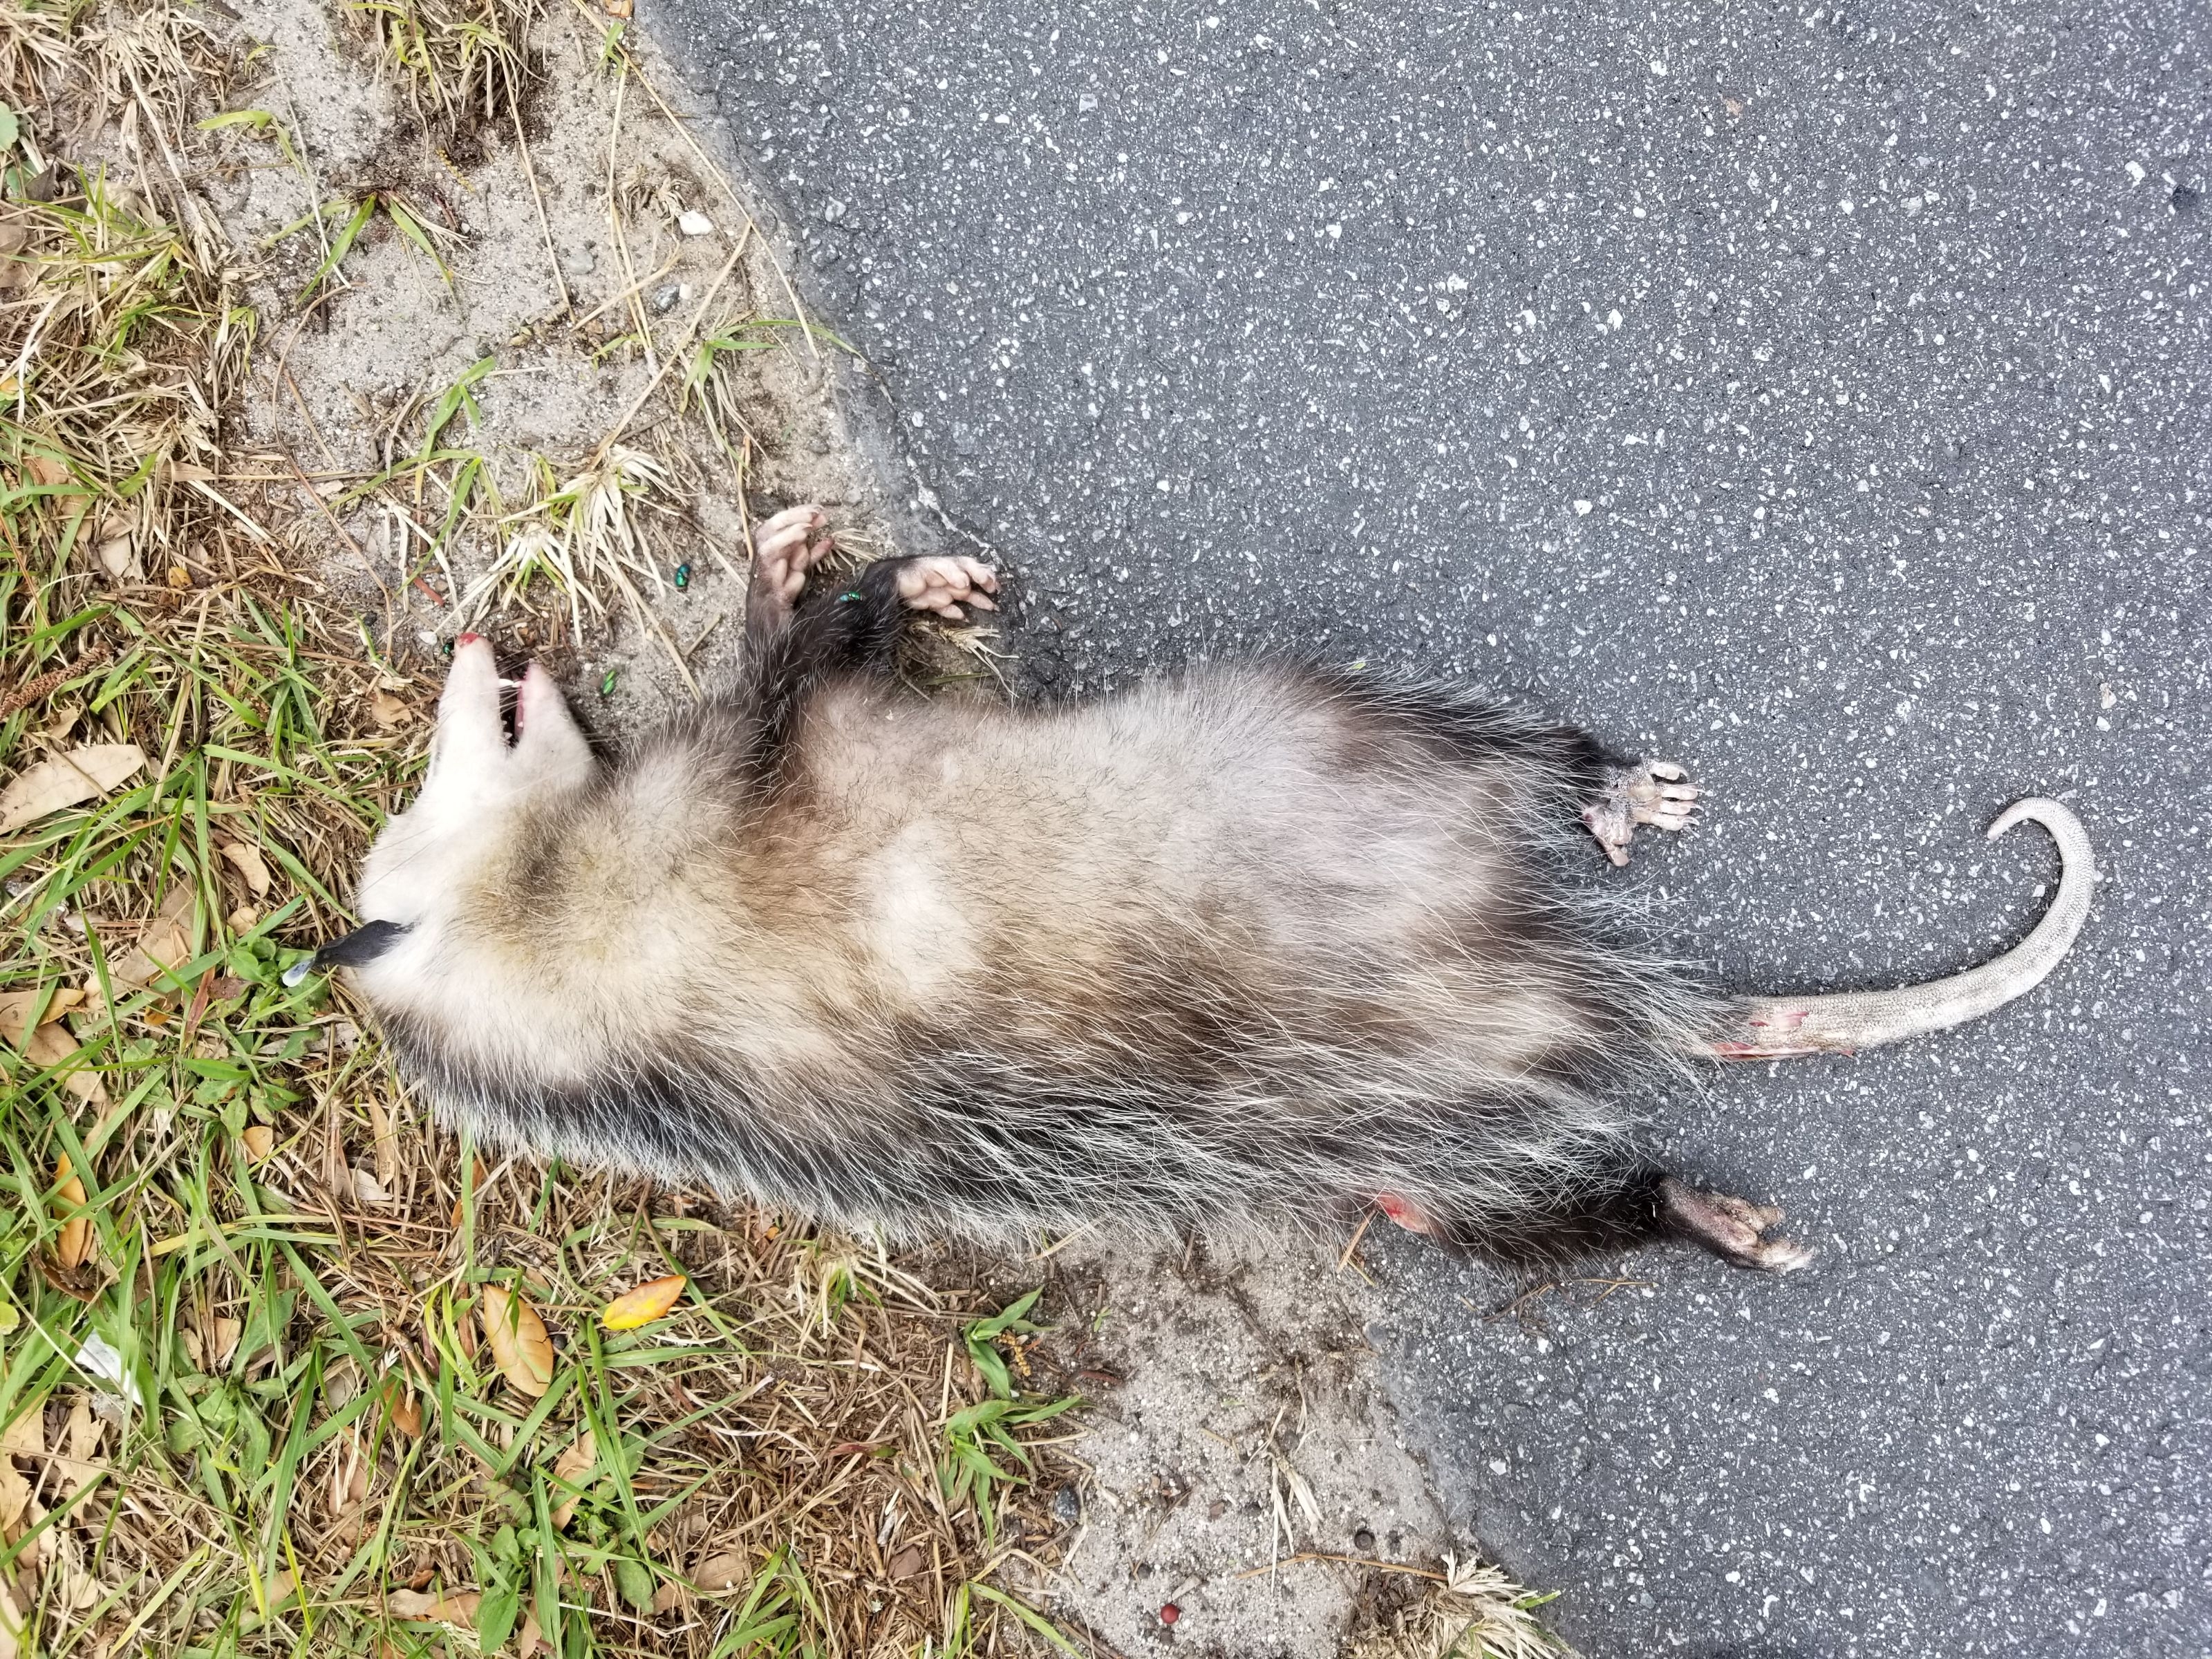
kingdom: Animalia
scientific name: Animalia
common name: NA
